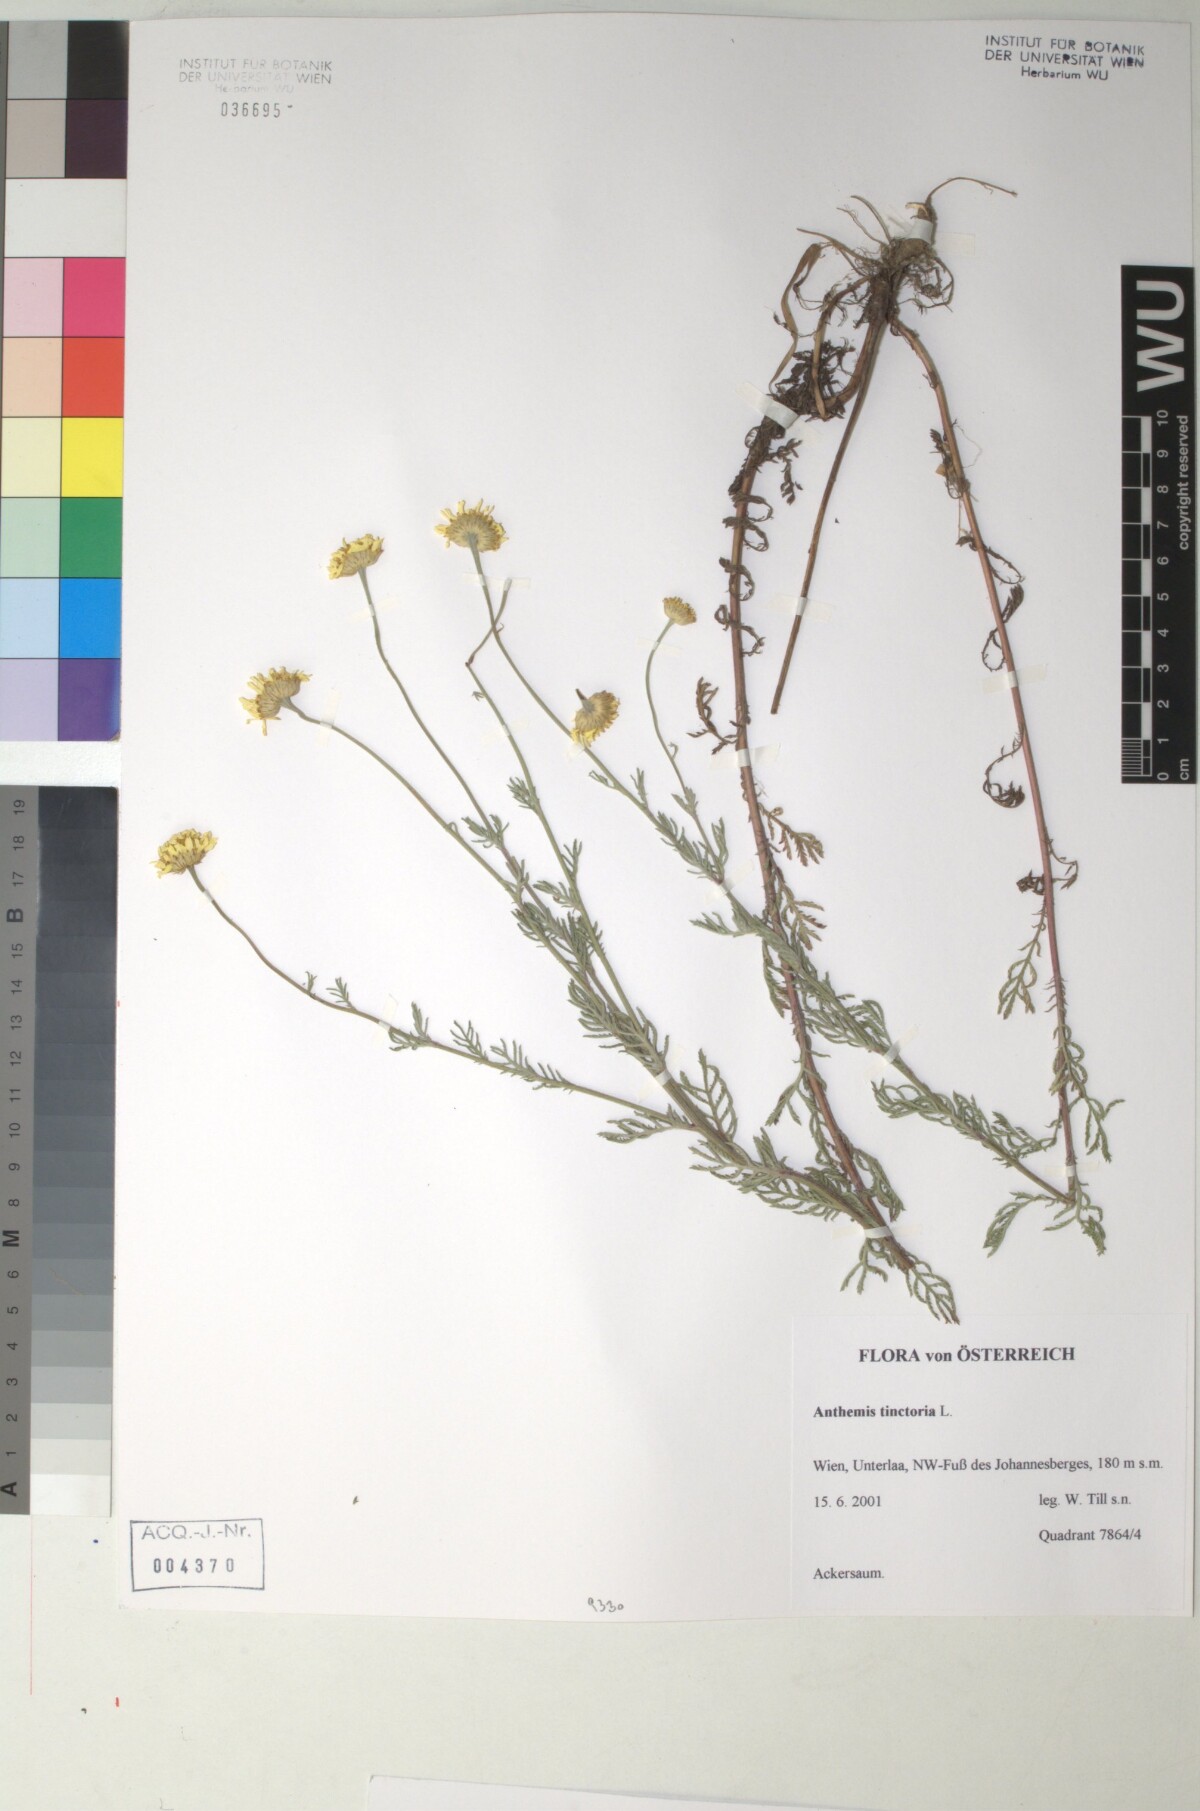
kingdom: Plantae
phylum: Tracheophyta
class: Magnoliopsida
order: Asterales
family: Asteraceae
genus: Cota
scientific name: Cota tinctoria
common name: Golden chamomile
